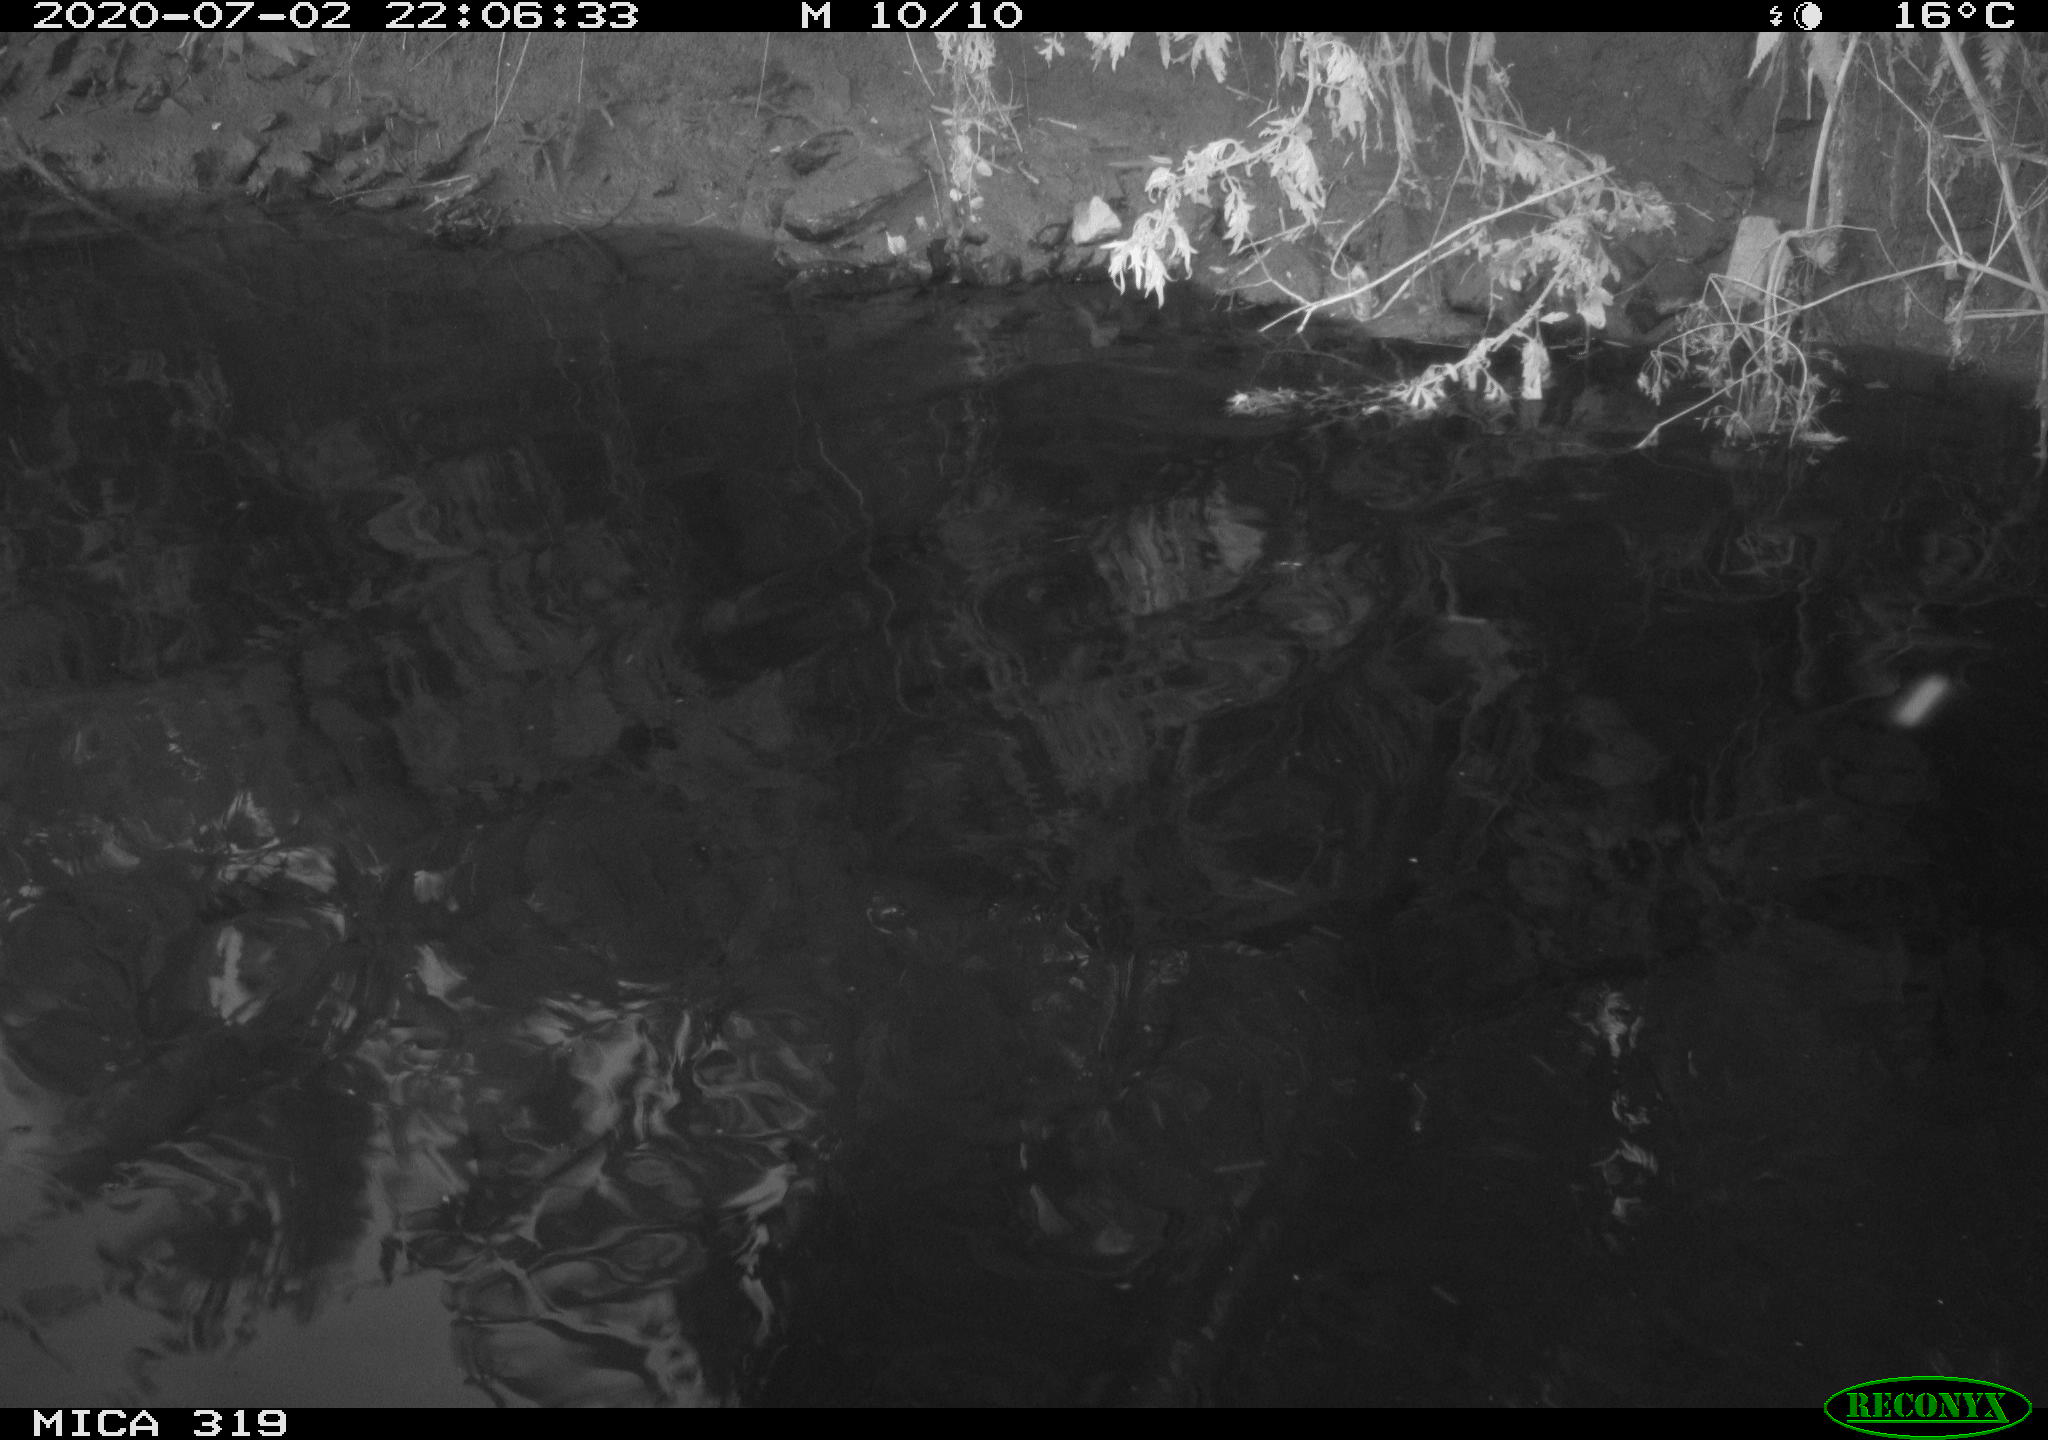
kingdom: Animalia
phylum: Chordata
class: Aves
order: Anseriformes
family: Anatidae
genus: Anas
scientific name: Anas platyrhynchos
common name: Mallard
